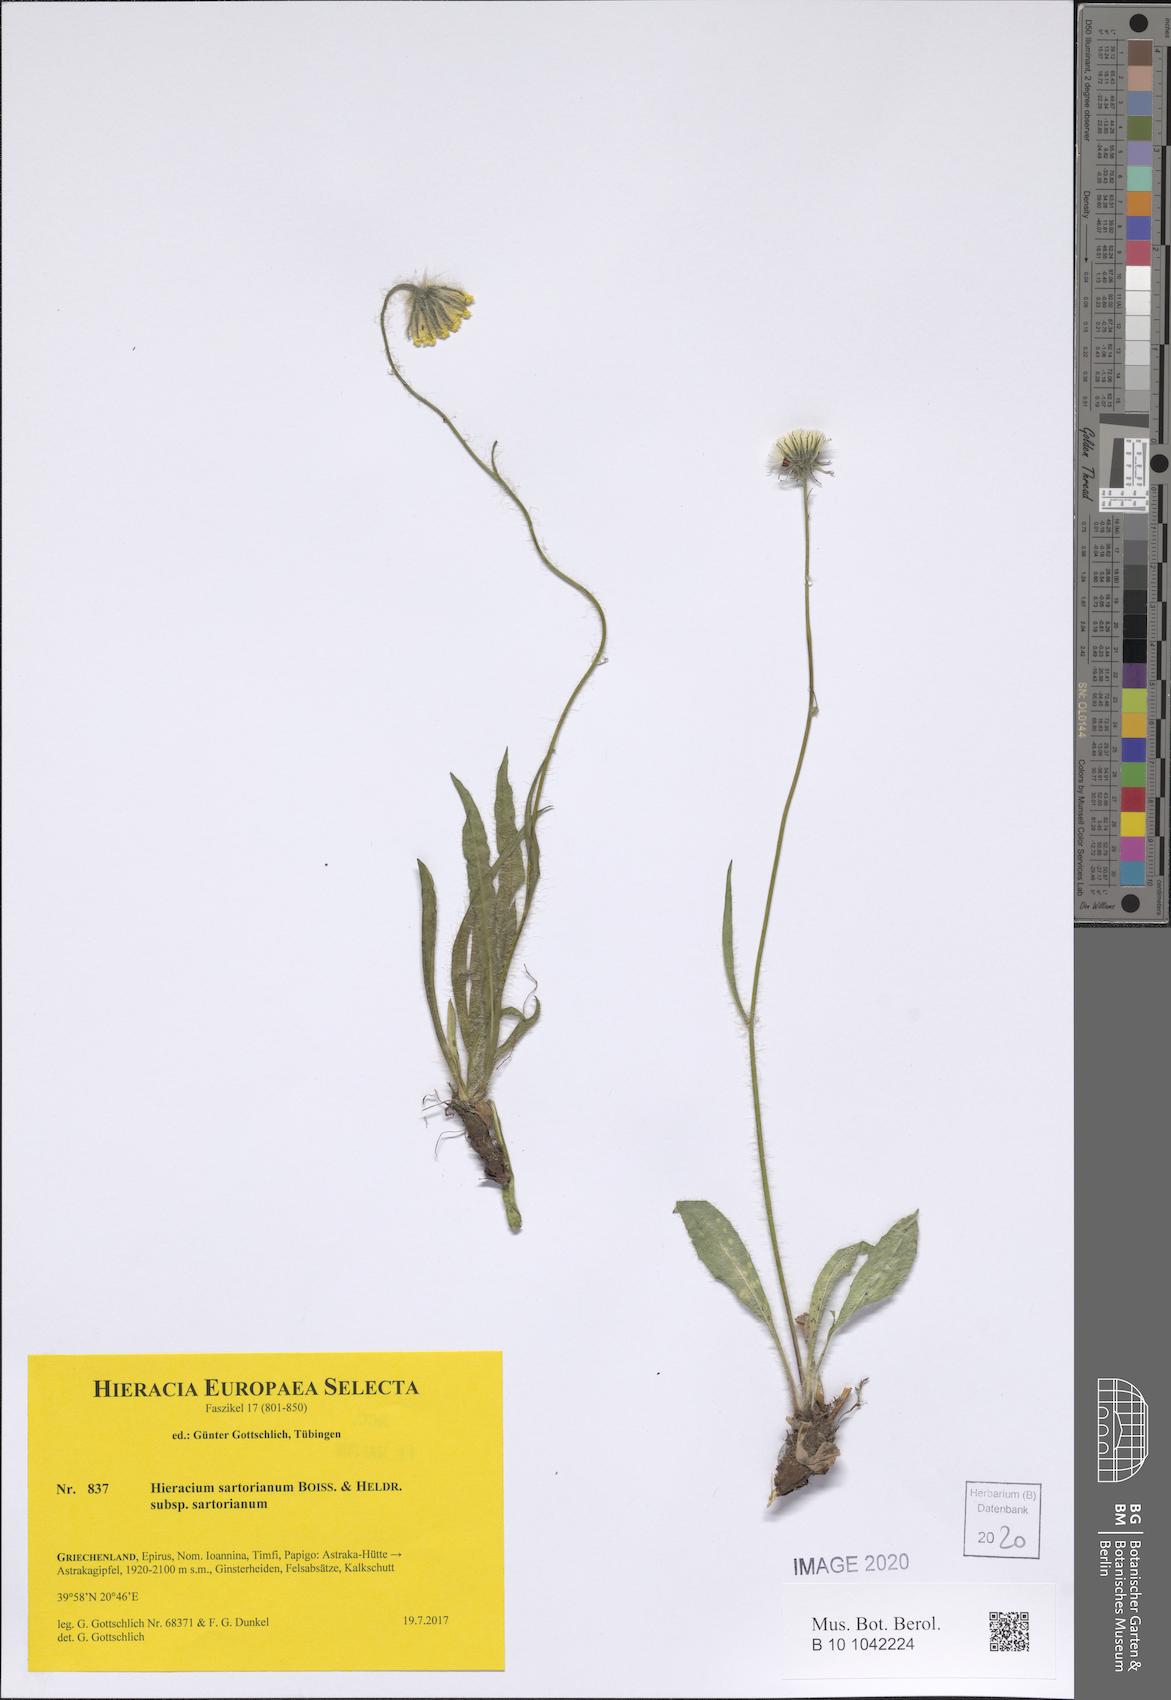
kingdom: Plantae
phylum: Tracheophyta
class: Magnoliopsida
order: Asterales
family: Asteraceae
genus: Hieracium
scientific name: Hieracium sartorianum
